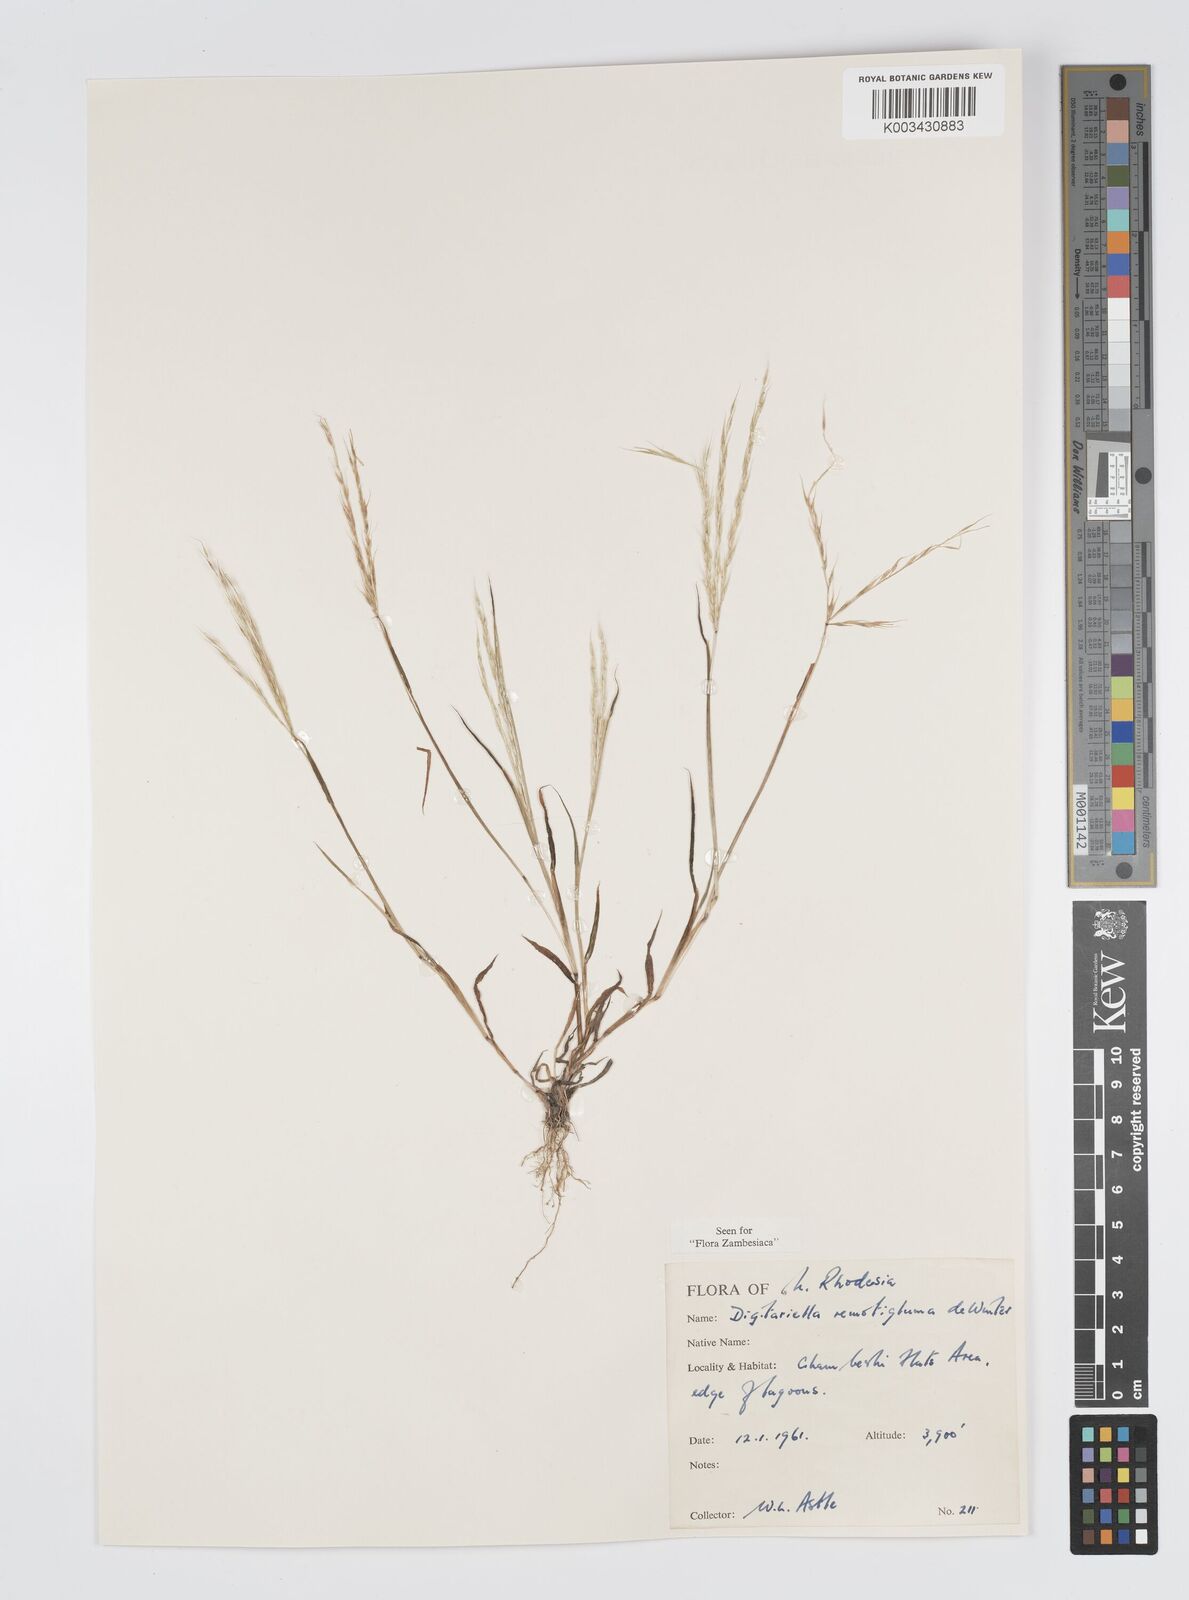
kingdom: Plantae
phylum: Tracheophyta
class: Liliopsida
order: Poales
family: Poaceae
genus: Digitaria
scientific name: Digitaria remotigluma
